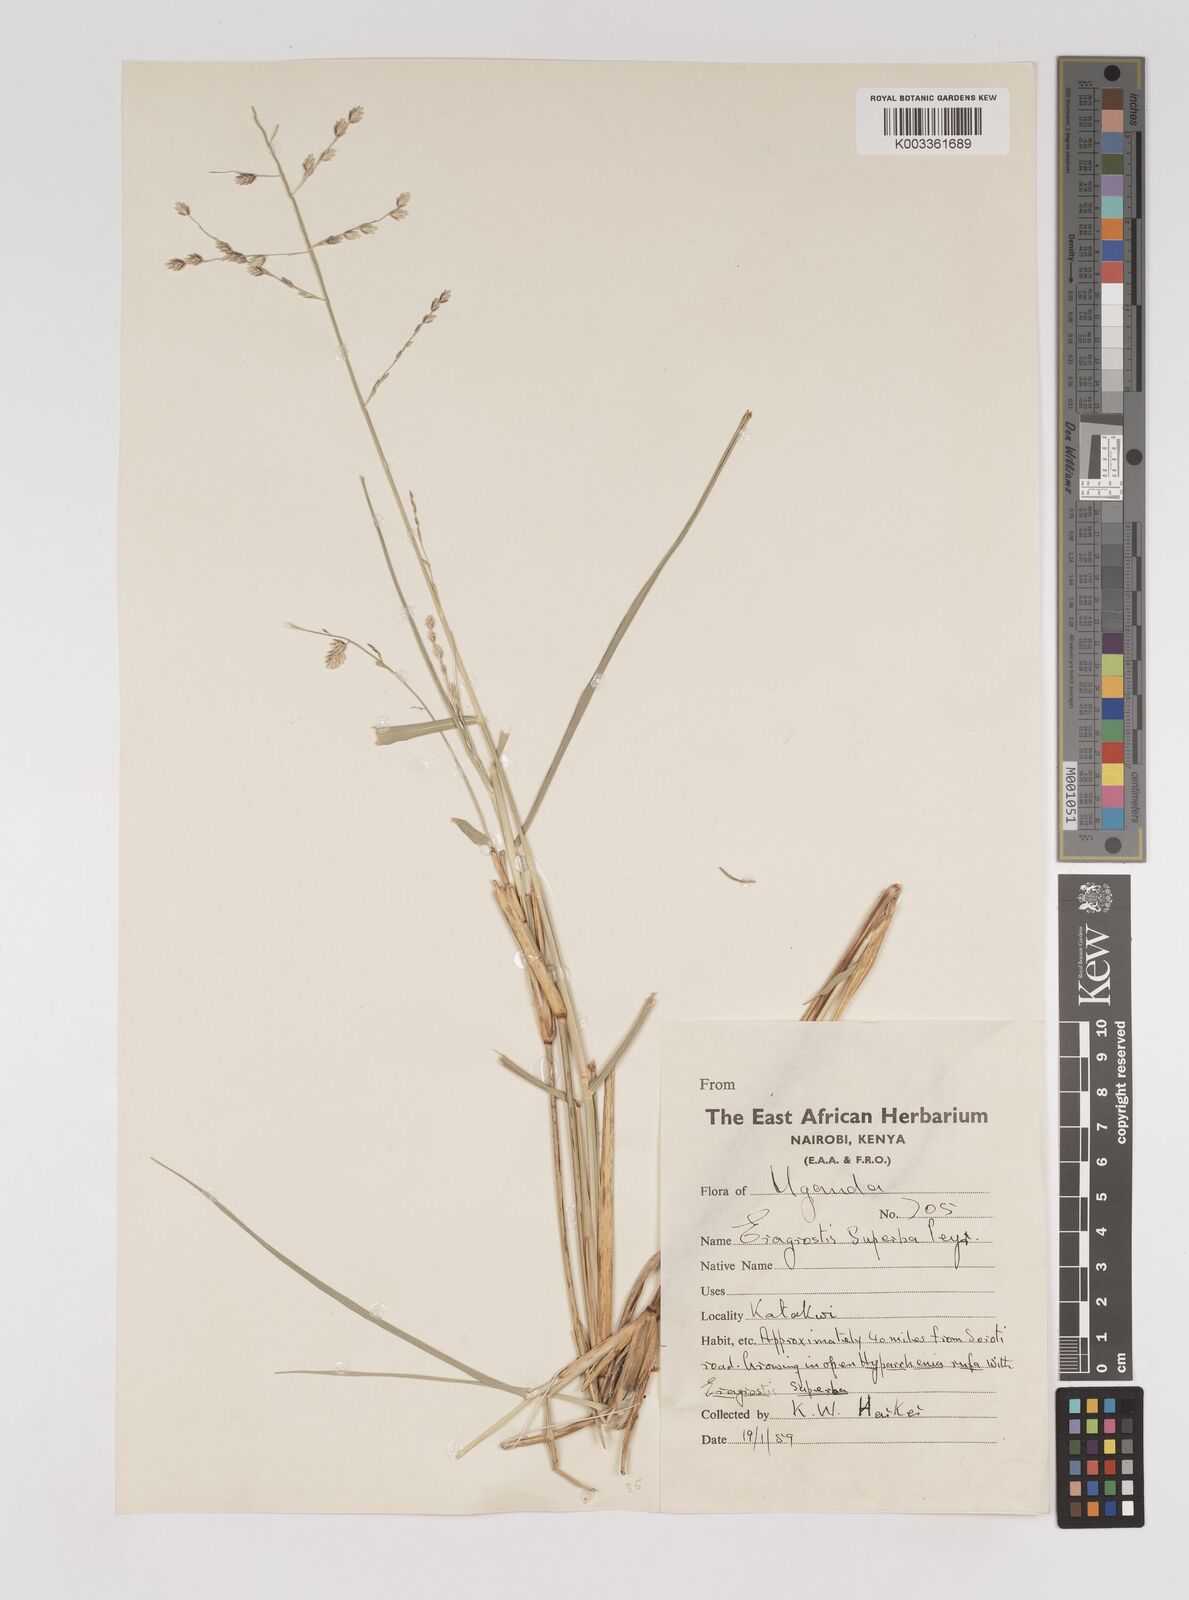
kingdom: Plantae
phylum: Tracheophyta
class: Liliopsida
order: Poales
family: Poaceae
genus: Eragrostis
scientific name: Eragrostis superba
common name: Wilman lovegrass
